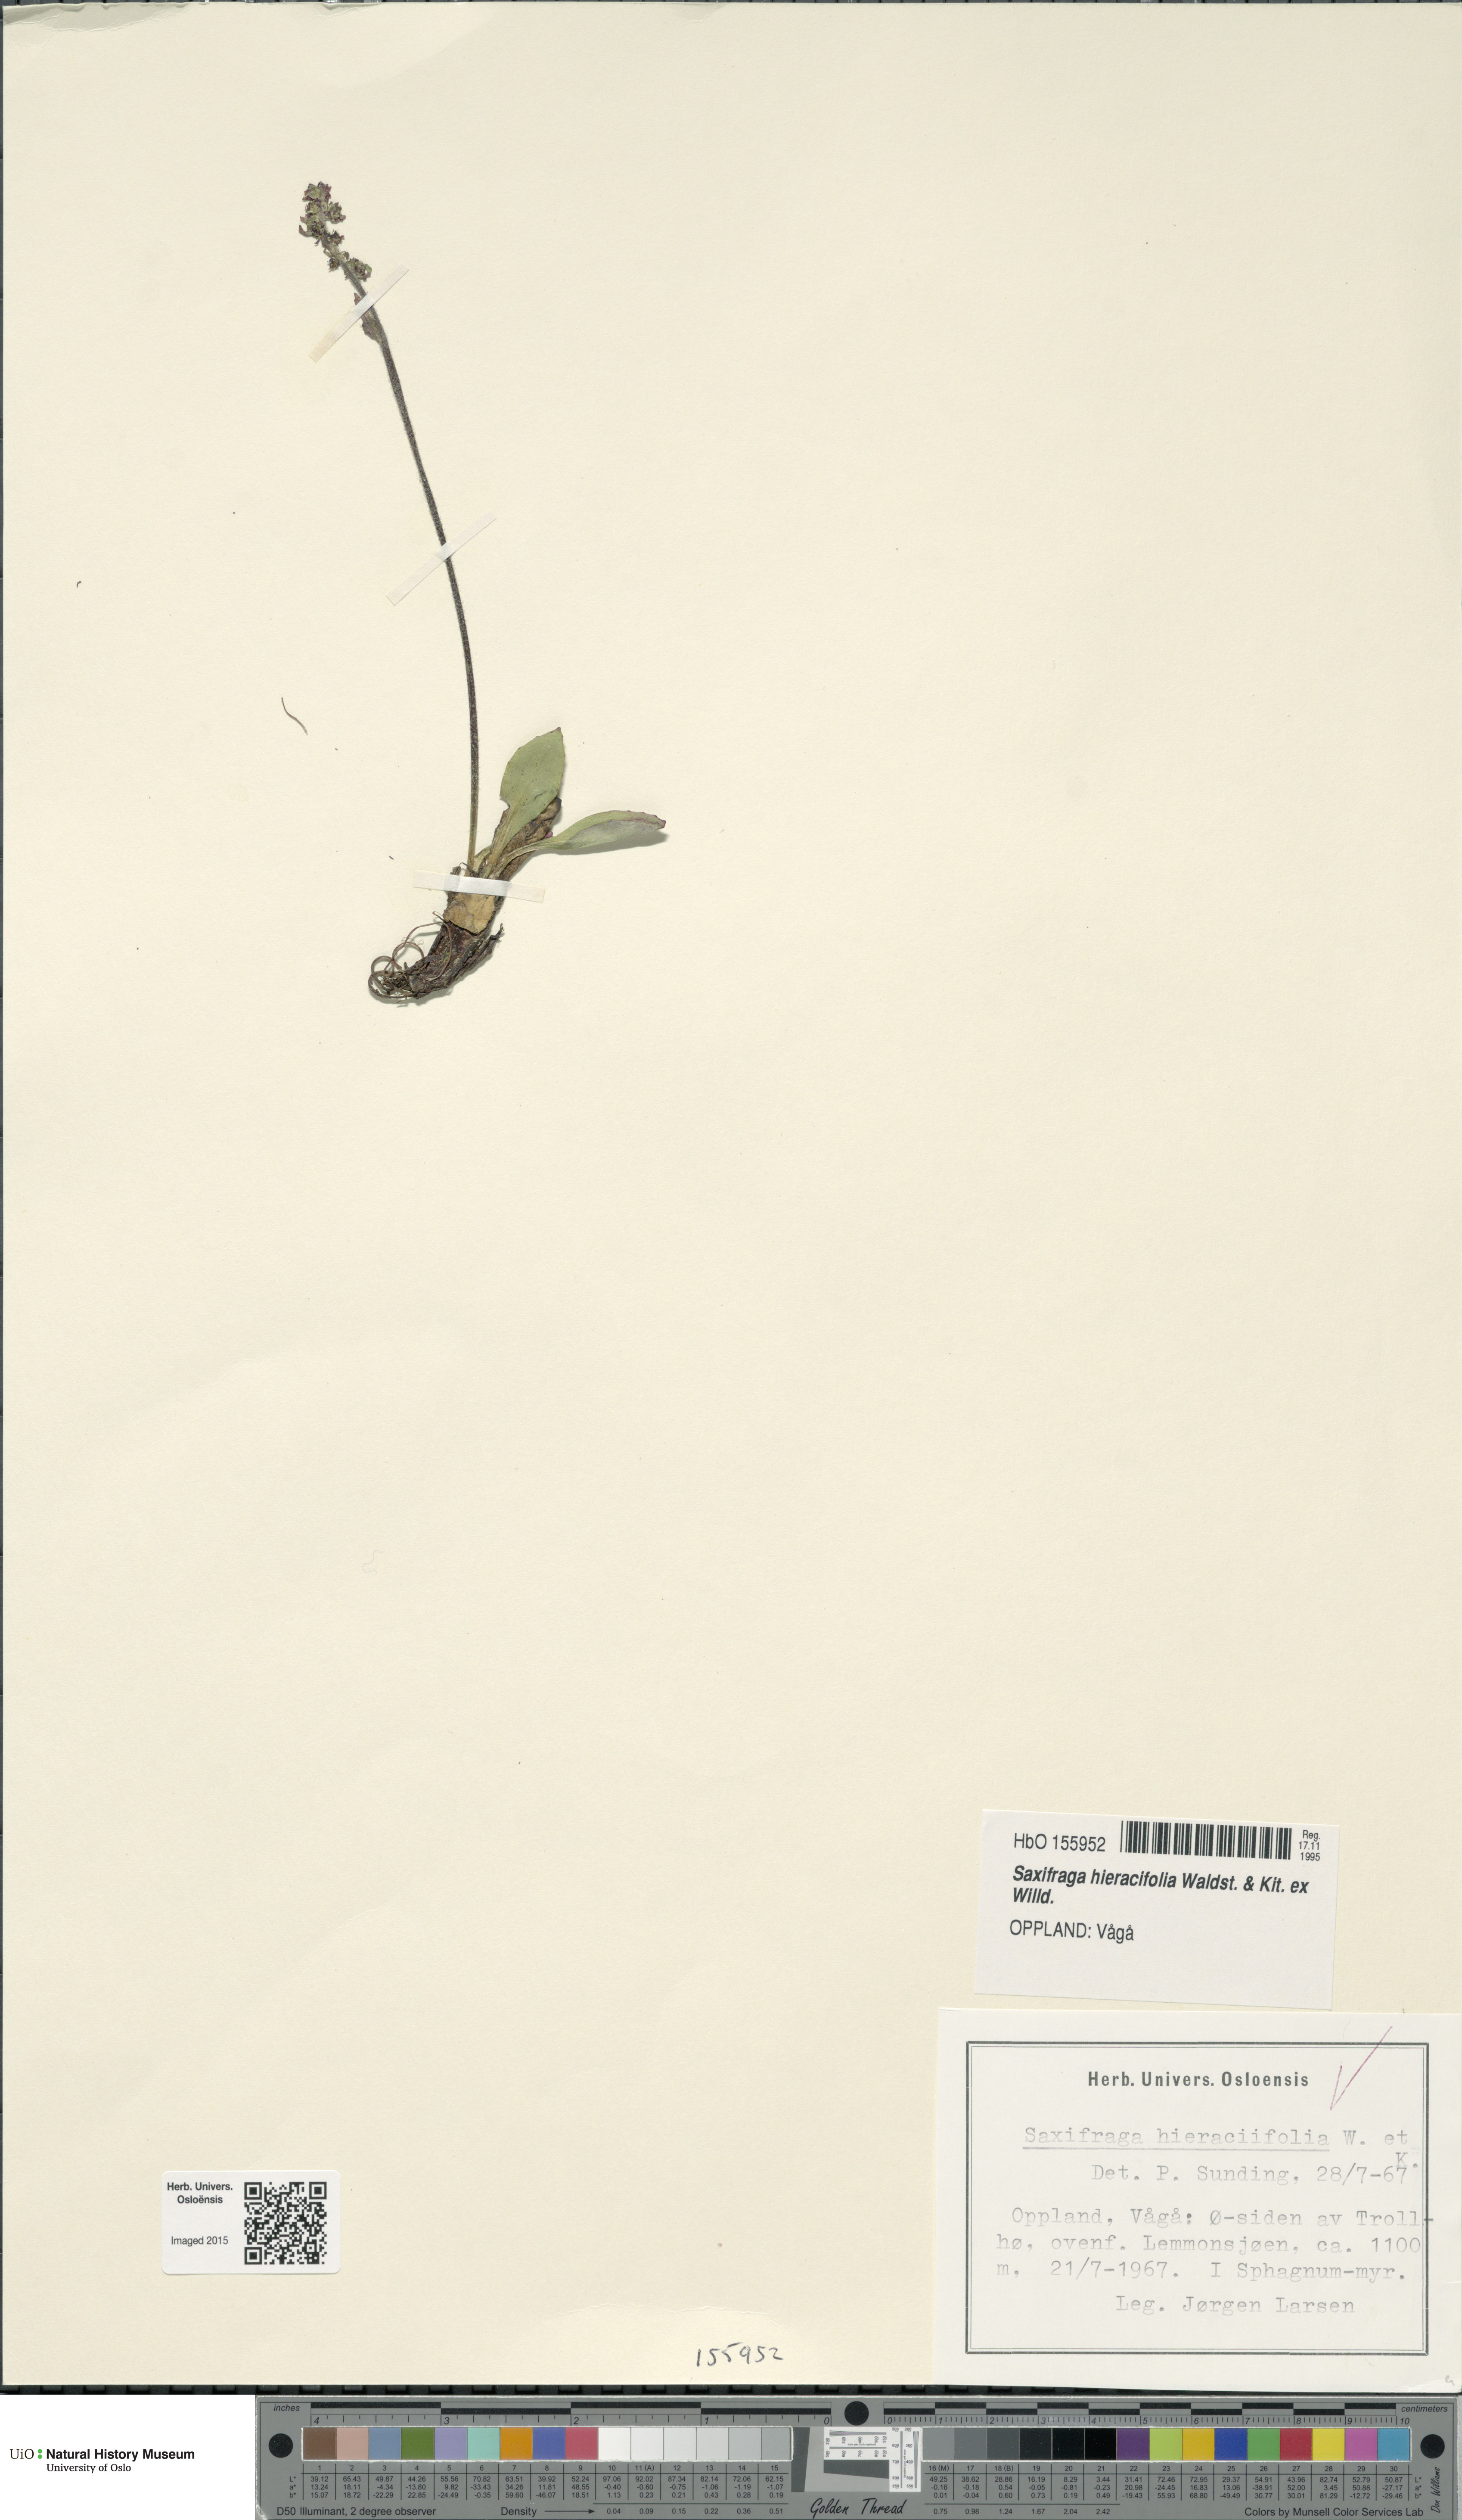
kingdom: Plantae
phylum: Tracheophyta
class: Magnoliopsida
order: Saxifragales
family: Saxifragaceae
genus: Micranthes
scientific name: Micranthes hieraciifolia
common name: Hawkweed-leaved saxifrage
